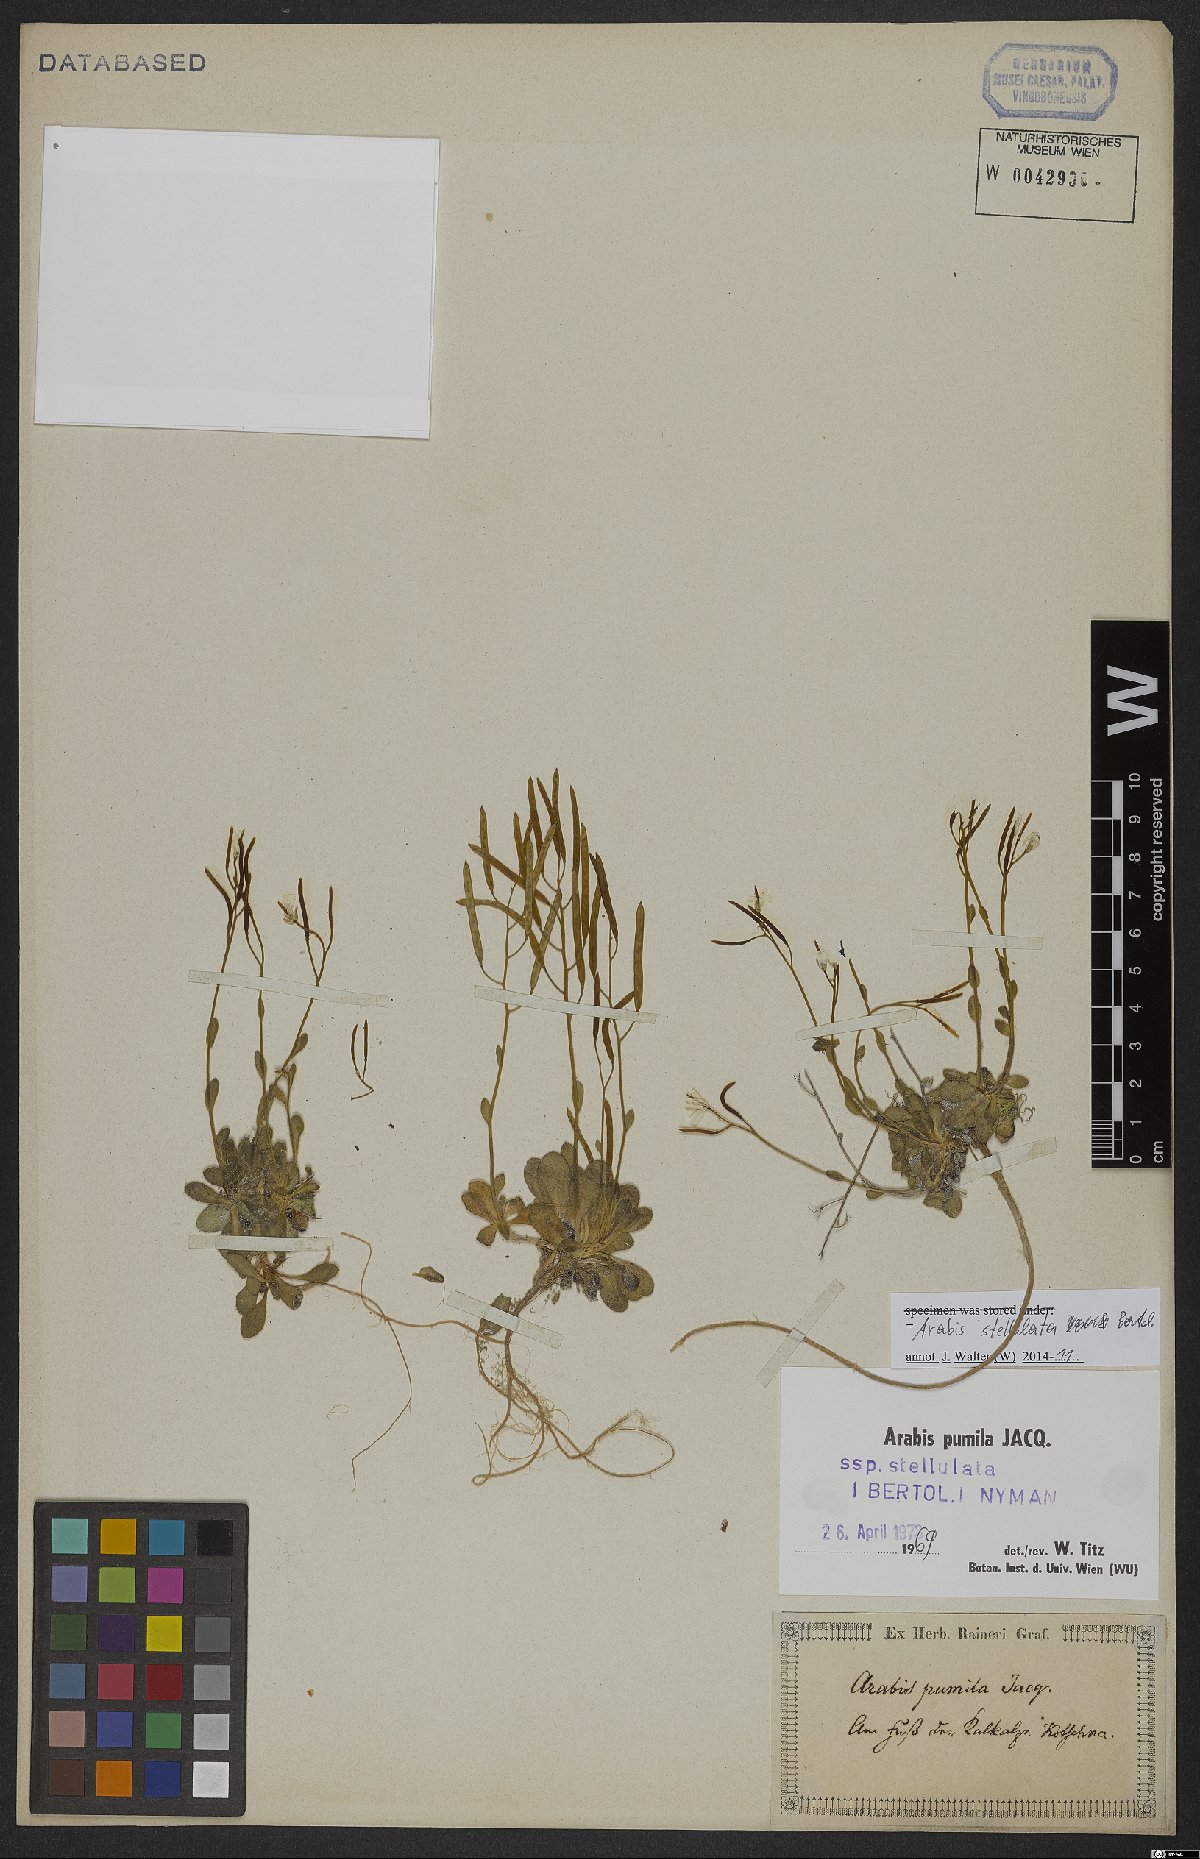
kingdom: Plantae
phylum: Tracheophyta
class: Magnoliopsida
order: Brassicales
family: Brassicaceae
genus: Arabis
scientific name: Arabis stellulata
